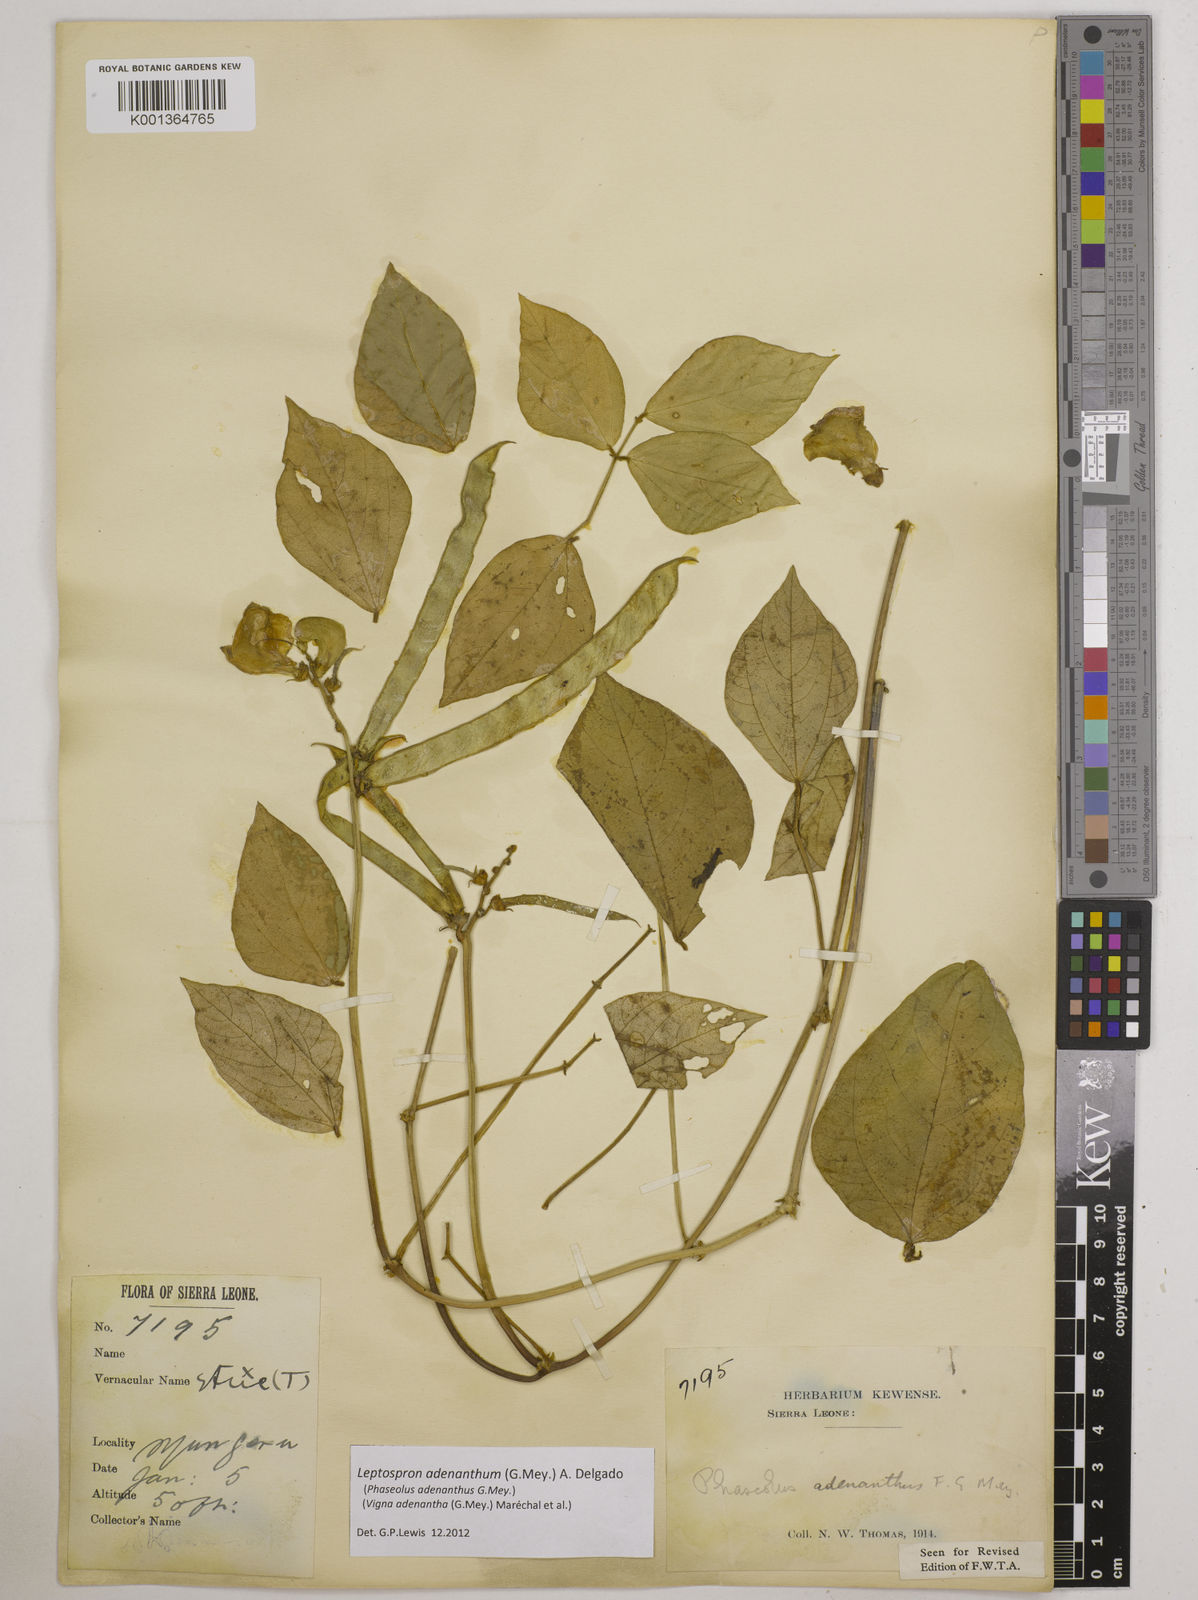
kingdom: Plantae
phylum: Tracheophyta
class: Magnoliopsida
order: Fabales
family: Fabaceae
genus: Leptospron
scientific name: Leptospron adenanthum
